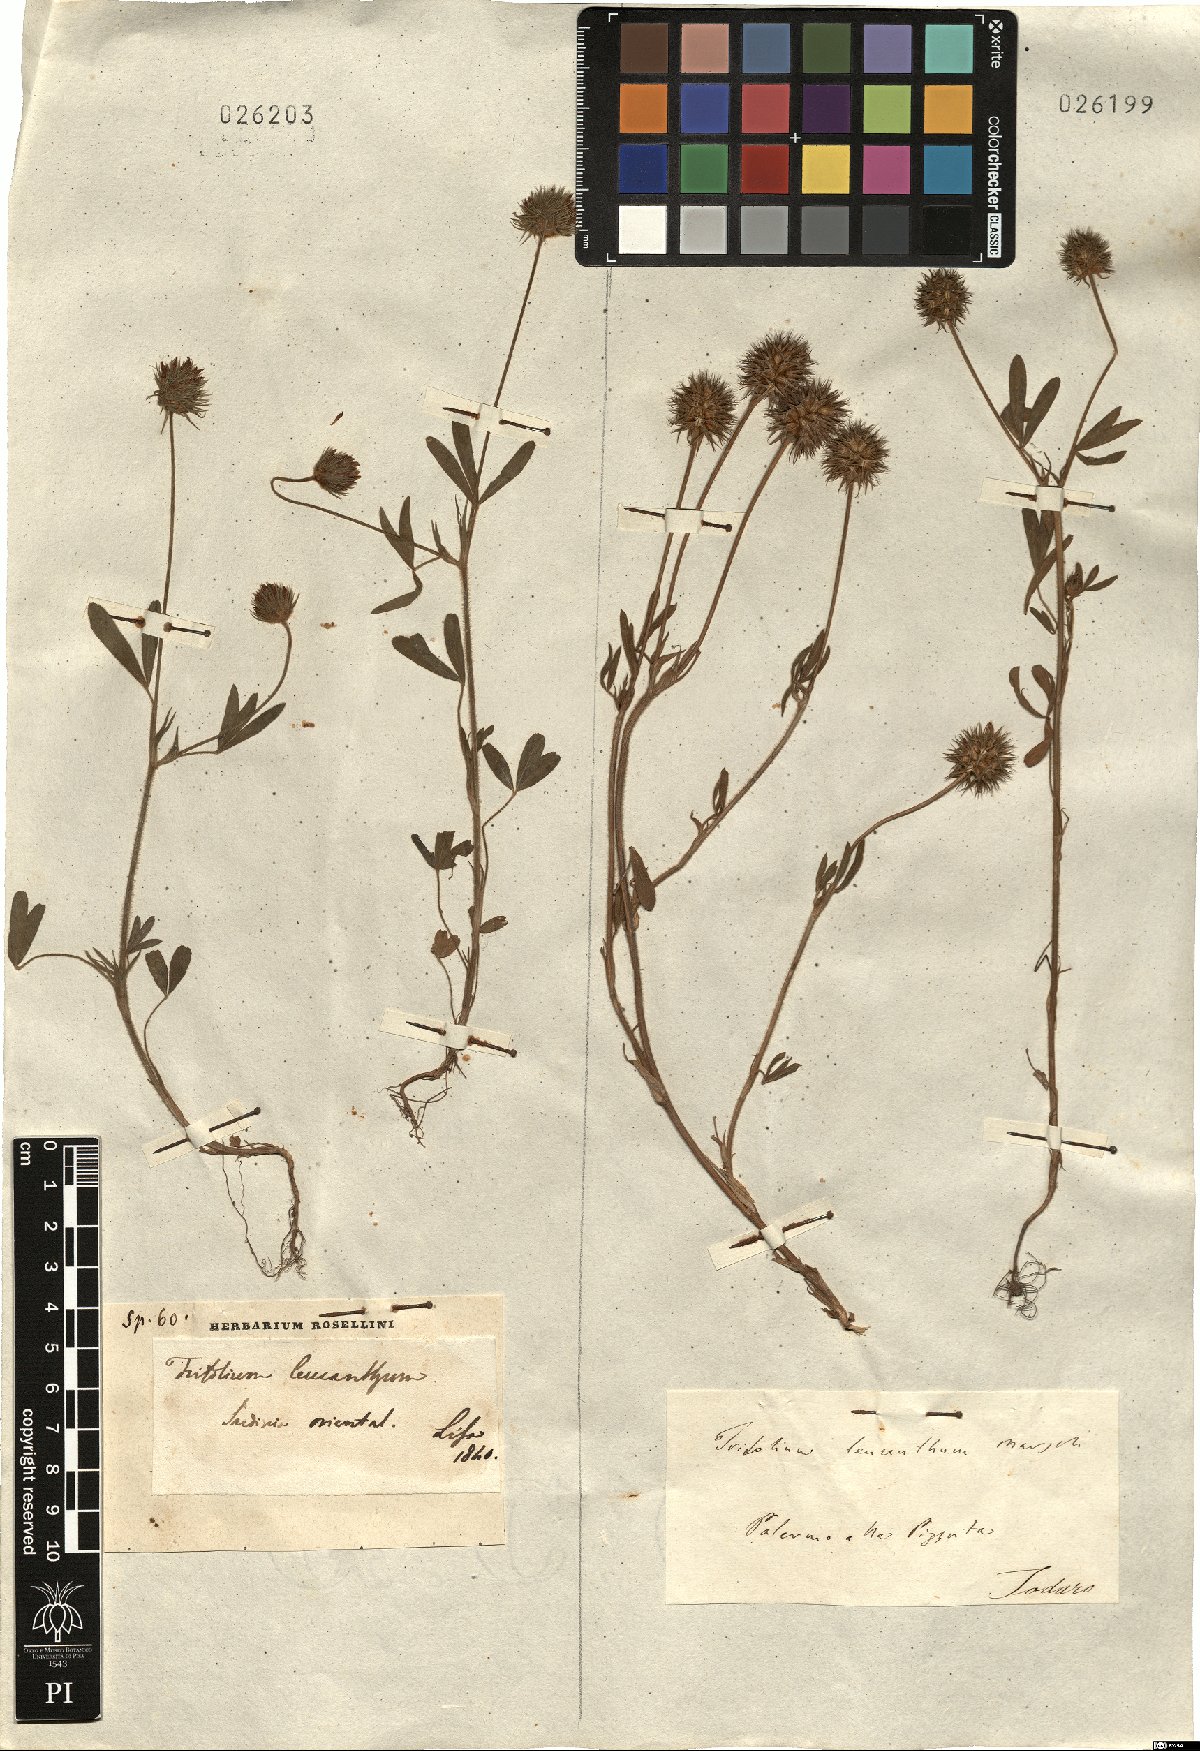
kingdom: Plantae
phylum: Tracheophyta
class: Magnoliopsida
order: Fabales
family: Fabaceae
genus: Trifolium
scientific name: Trifolium leucanthum
